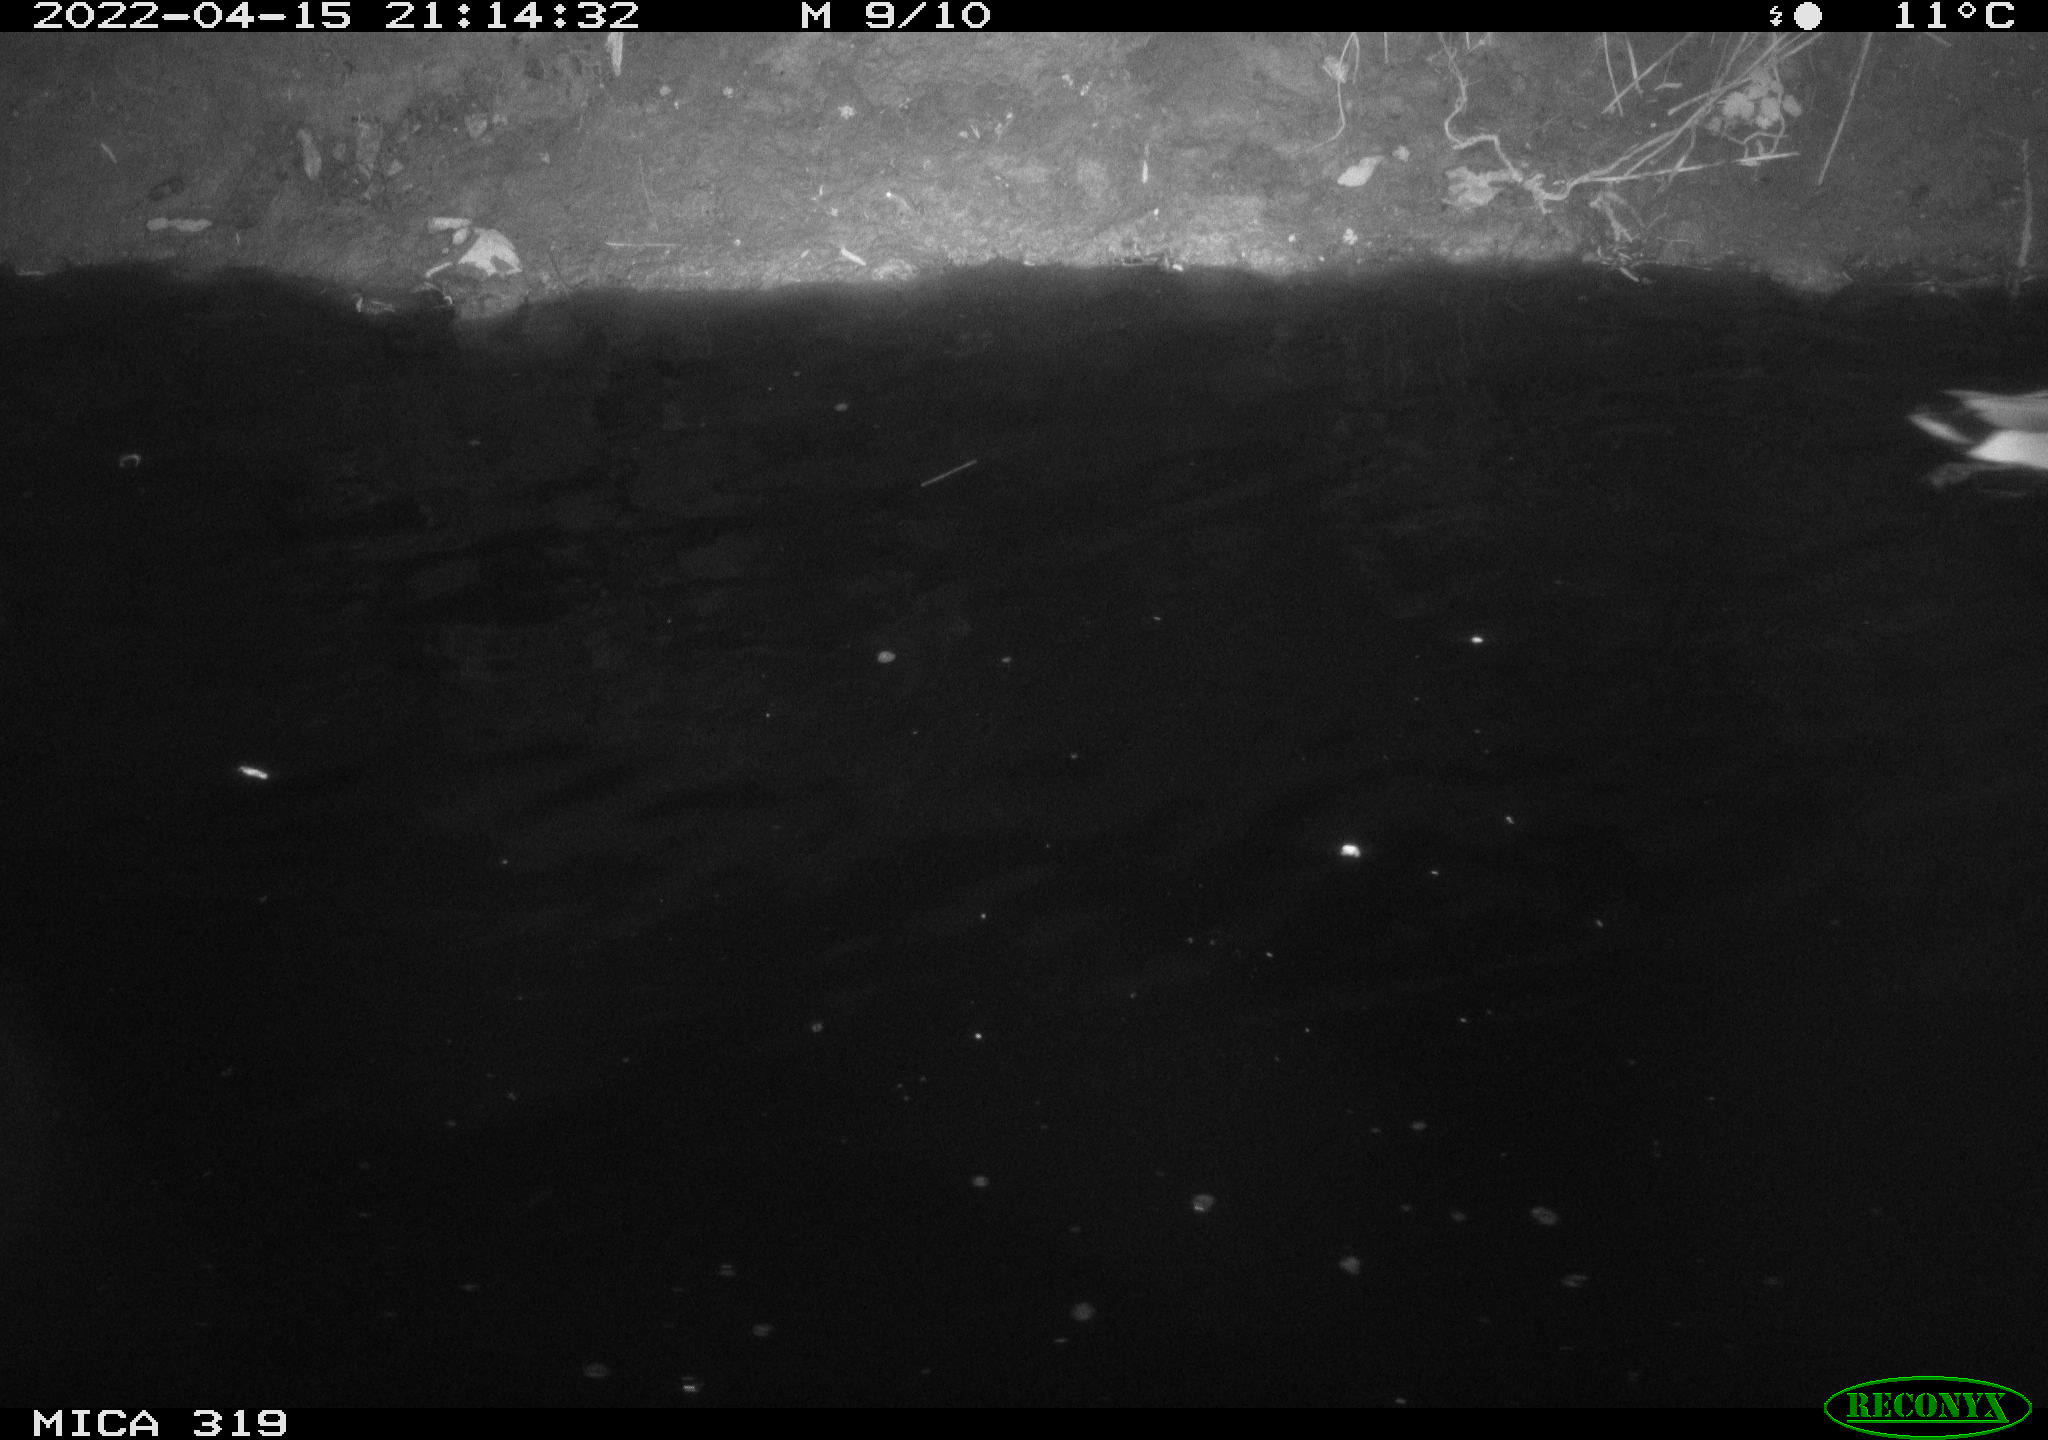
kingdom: Animalia
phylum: Chordata
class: Aves
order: Anseriformes
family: Anatidae
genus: Anas
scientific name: Anas platyrhynchos
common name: Mallard
